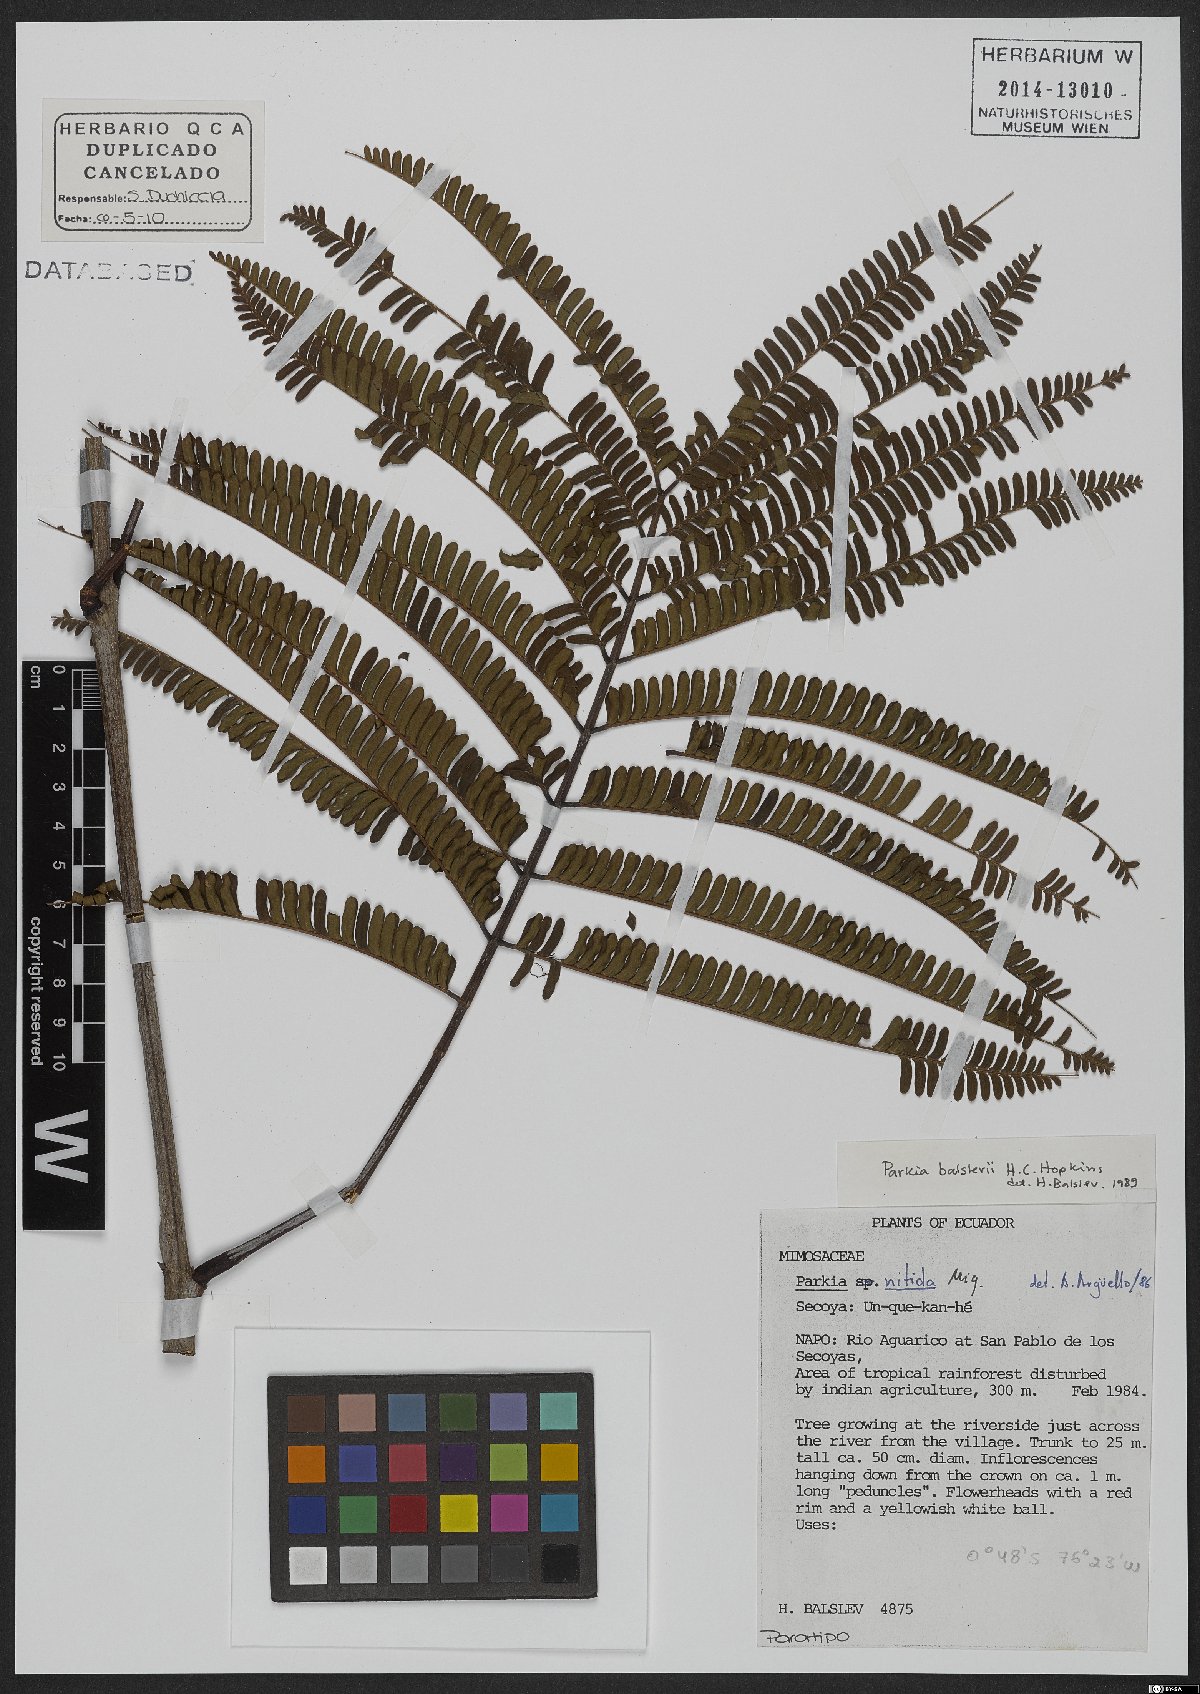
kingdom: Plantae
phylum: Tracheophyta
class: Magnoliopsida
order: Fabales
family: Fabaceae
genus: Parkia
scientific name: Parkia balslevii
